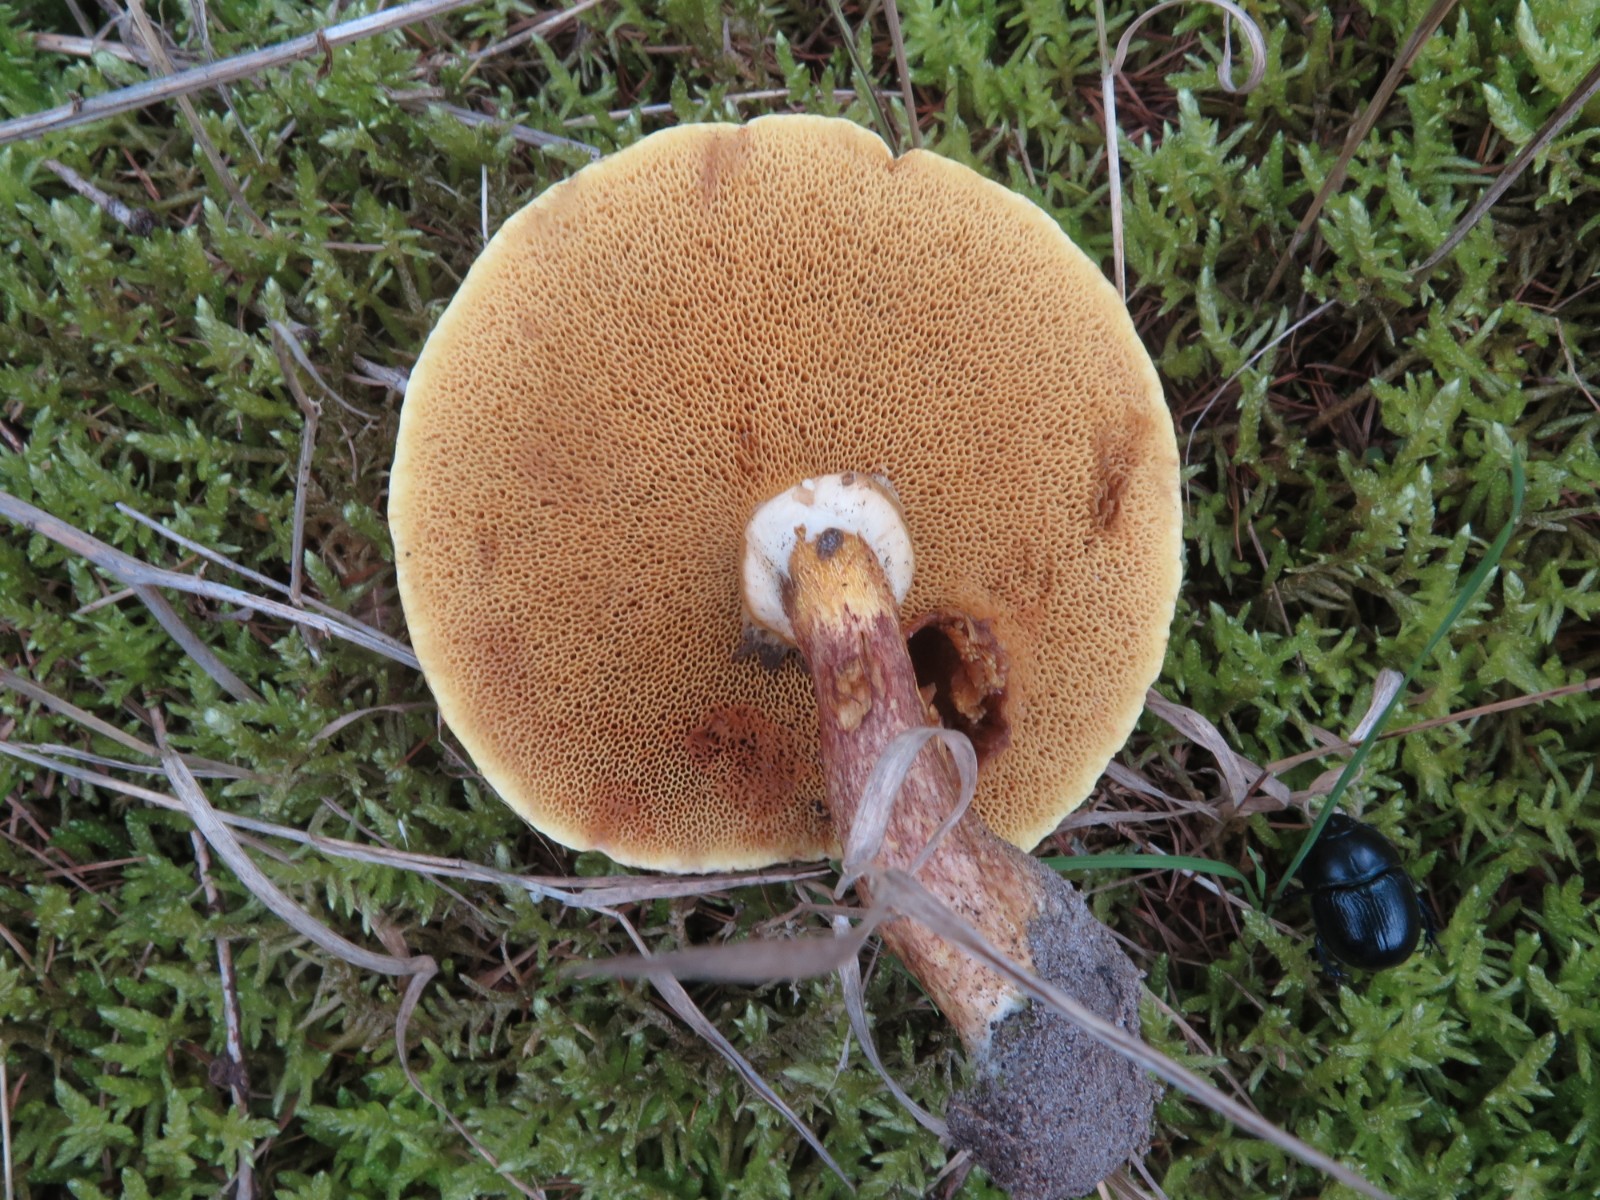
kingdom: Fungi
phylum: Basidiomycota
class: Agaricomycetes
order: Boletales
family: Suillaceae
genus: Suillus
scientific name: Suillus grevillei
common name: lærke-slimrørhat
